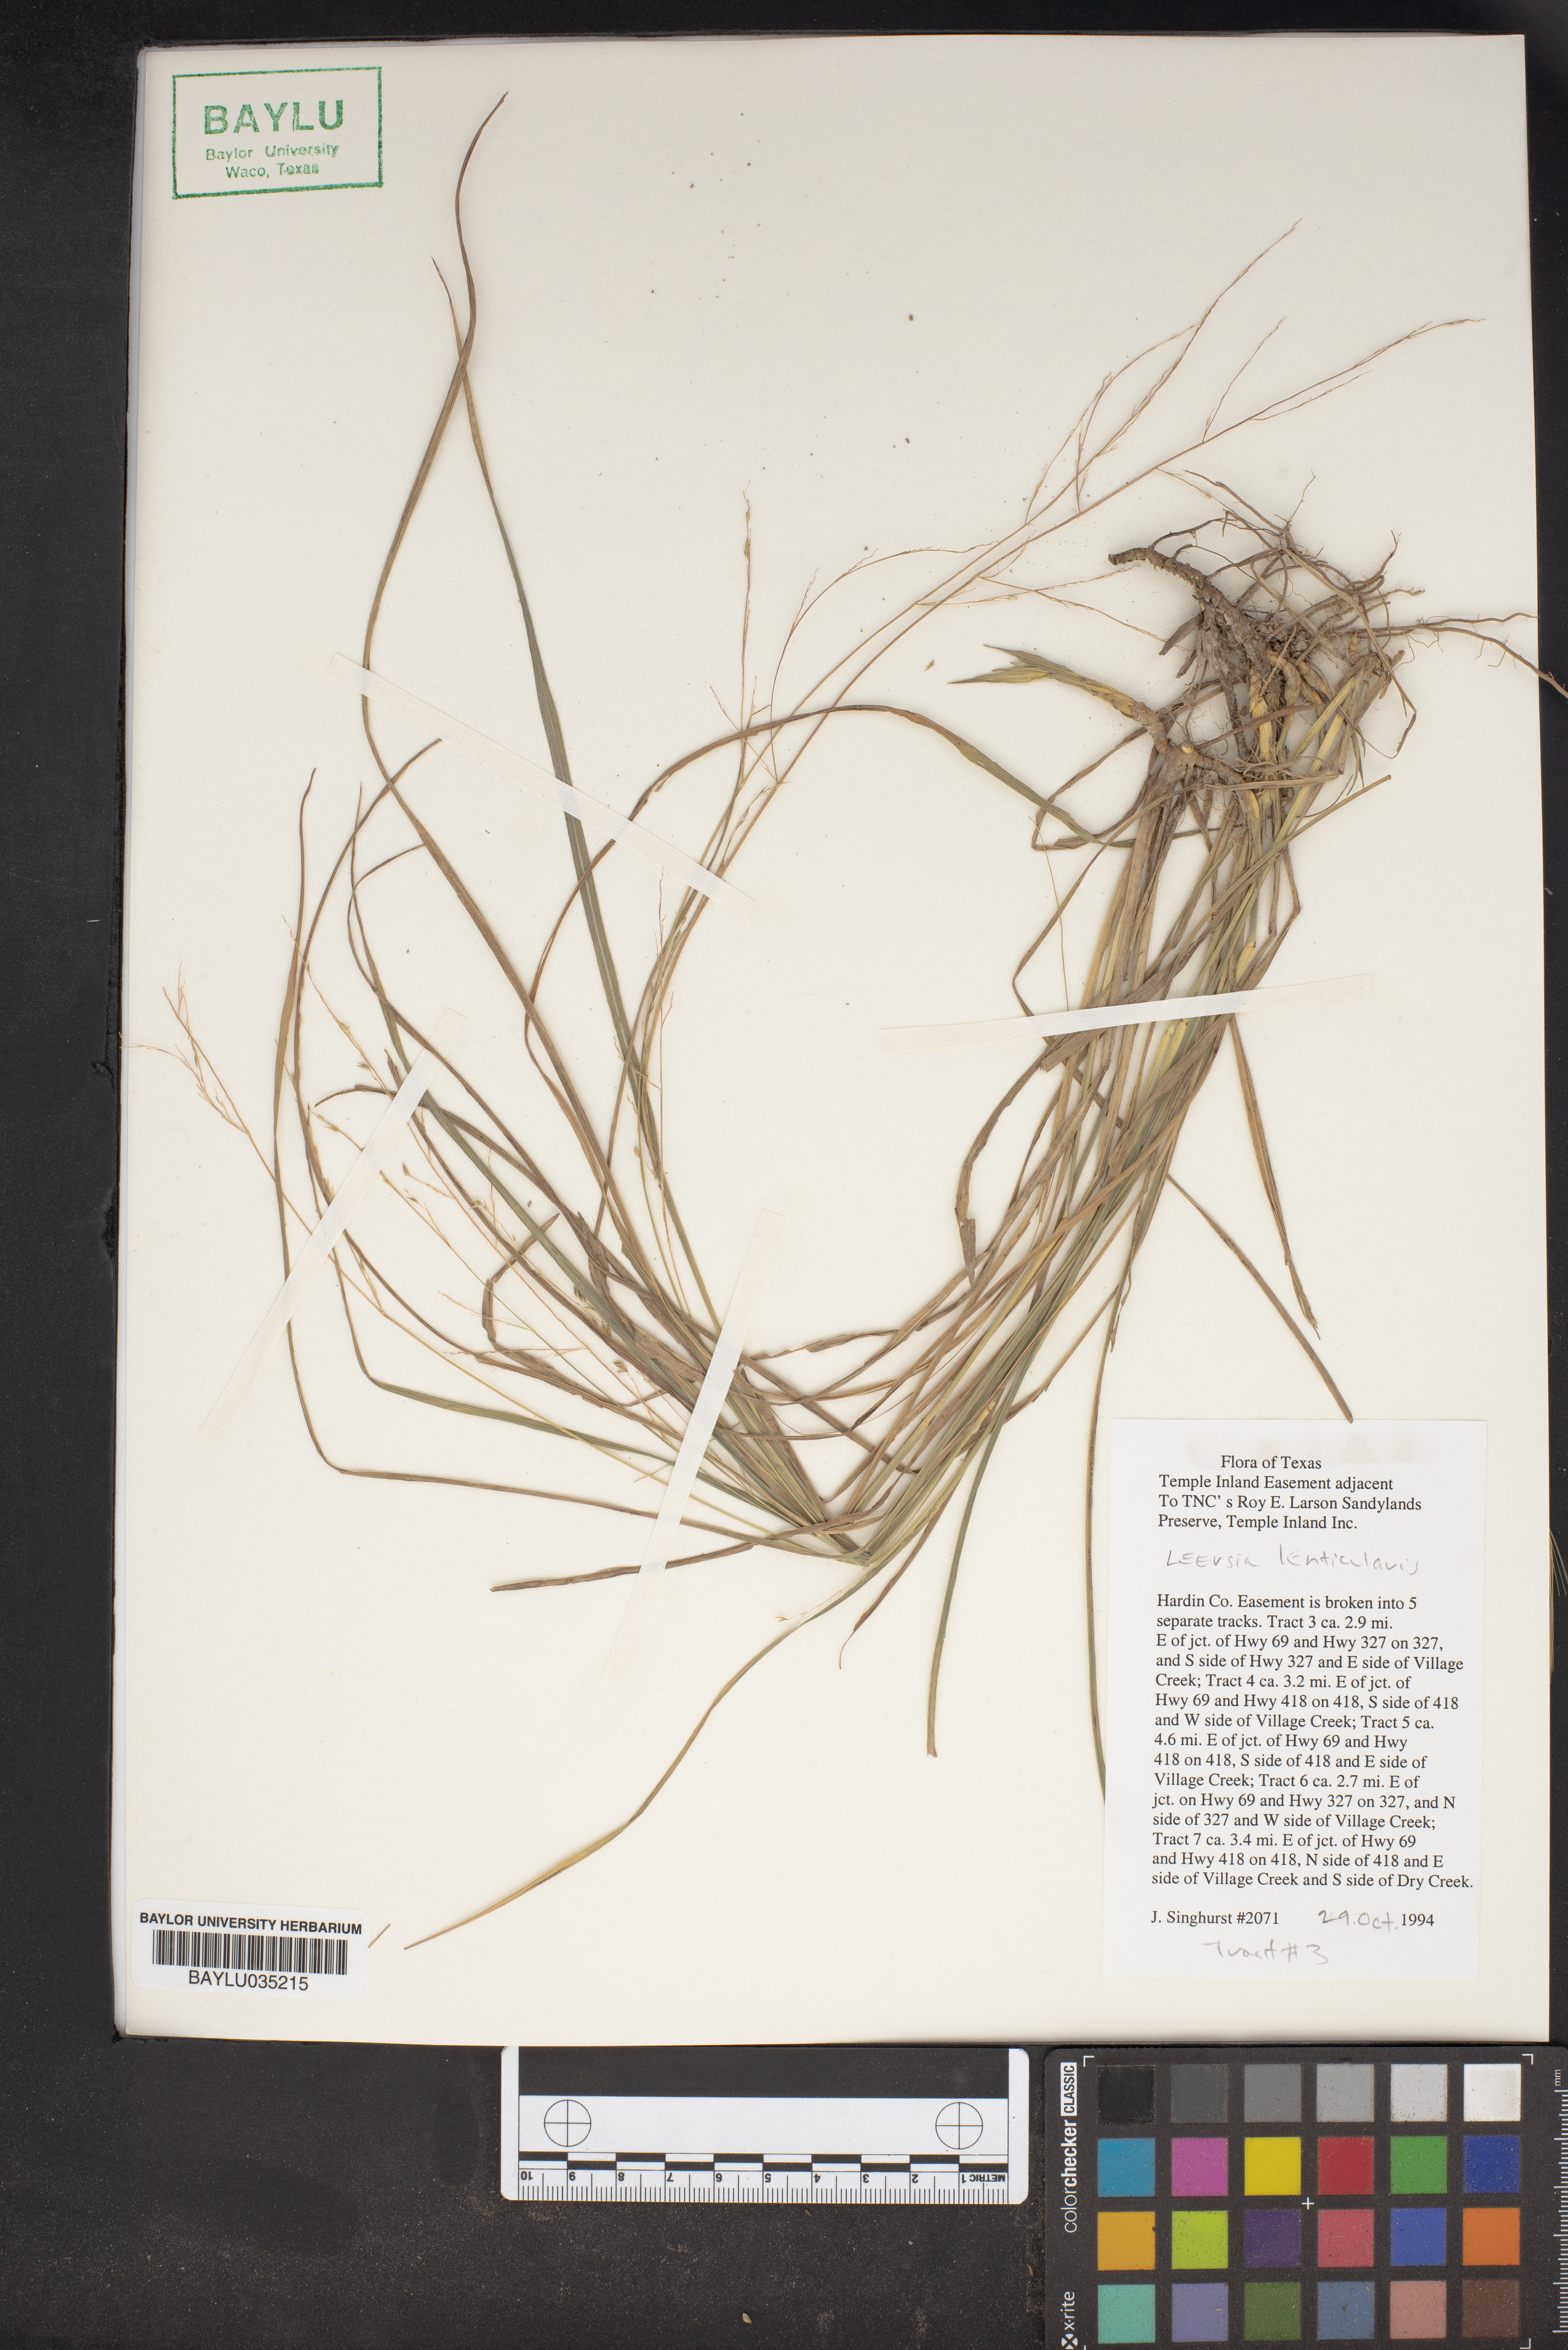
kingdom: Plantae
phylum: Tracheophyta
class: Liliopsida
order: Poales
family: Poaceae
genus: Leersia
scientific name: Leersia lenticularis
